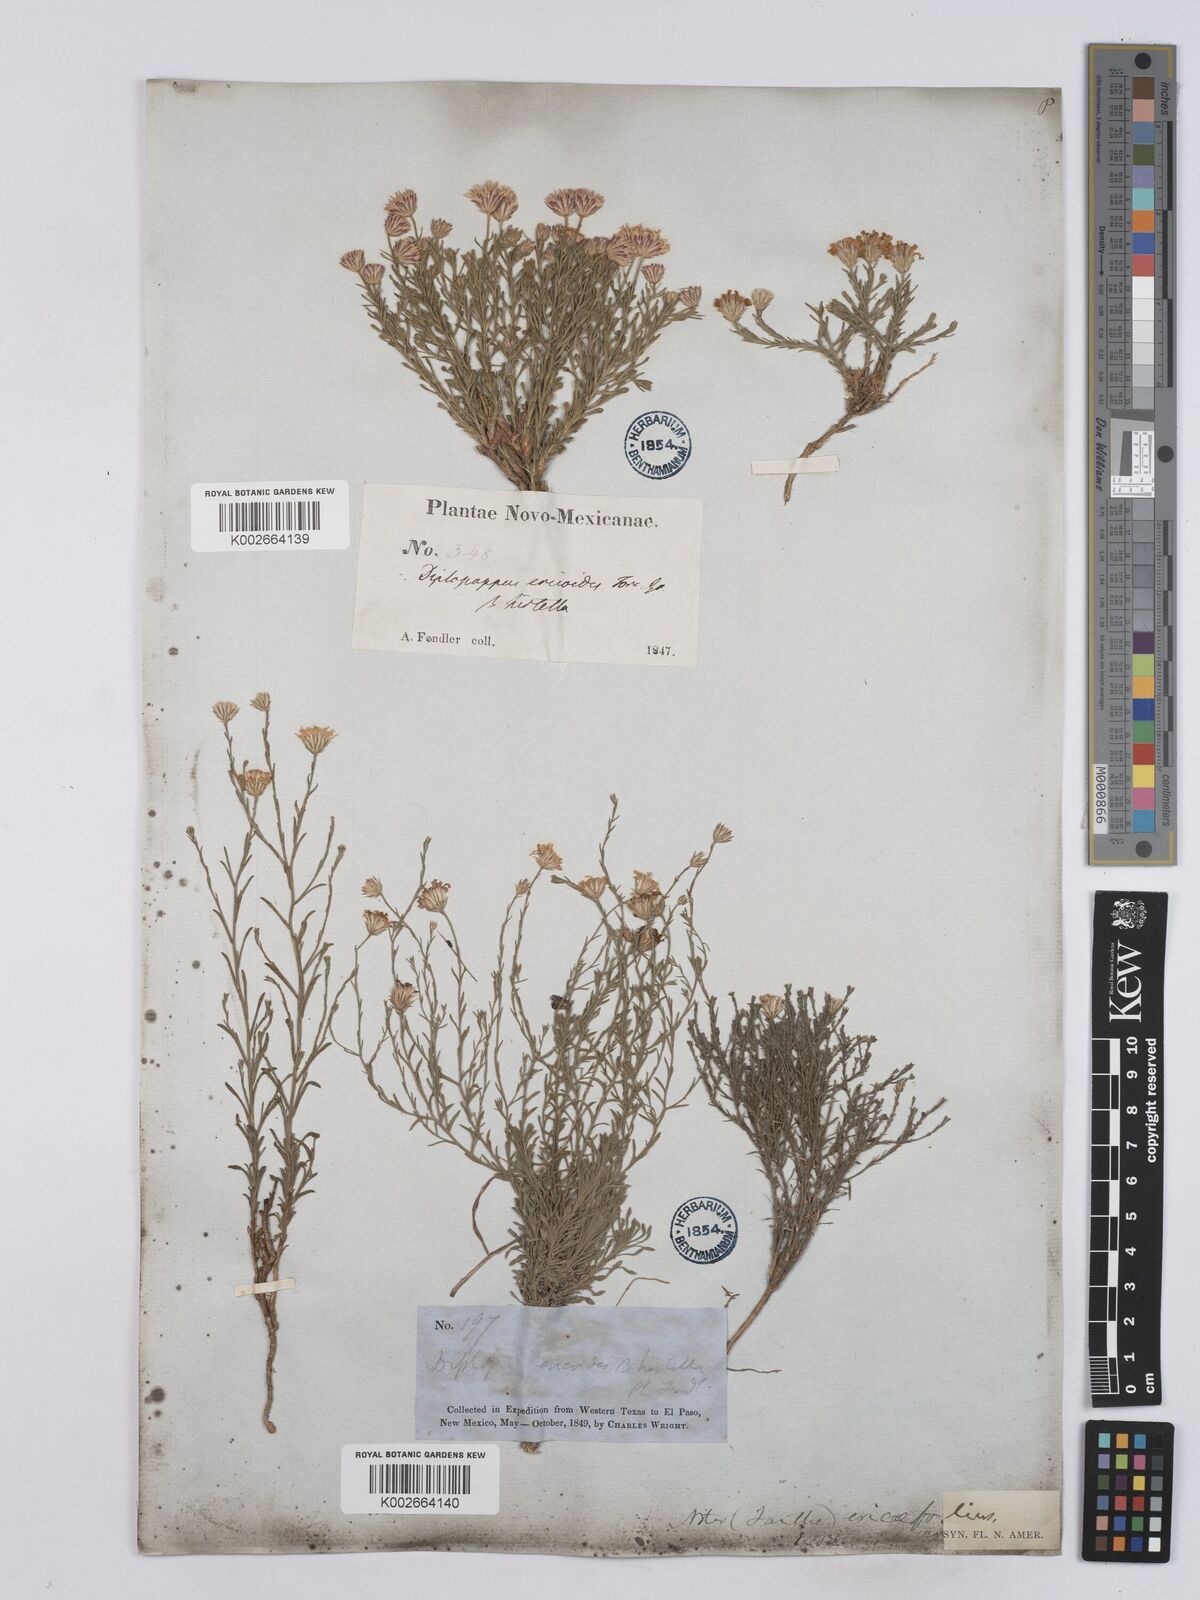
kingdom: Plantae
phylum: Tracheophyta
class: Magnoliopsida
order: Asterales
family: Asteraceae
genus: Chaetopappa
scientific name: Chaetopappa ericoides
